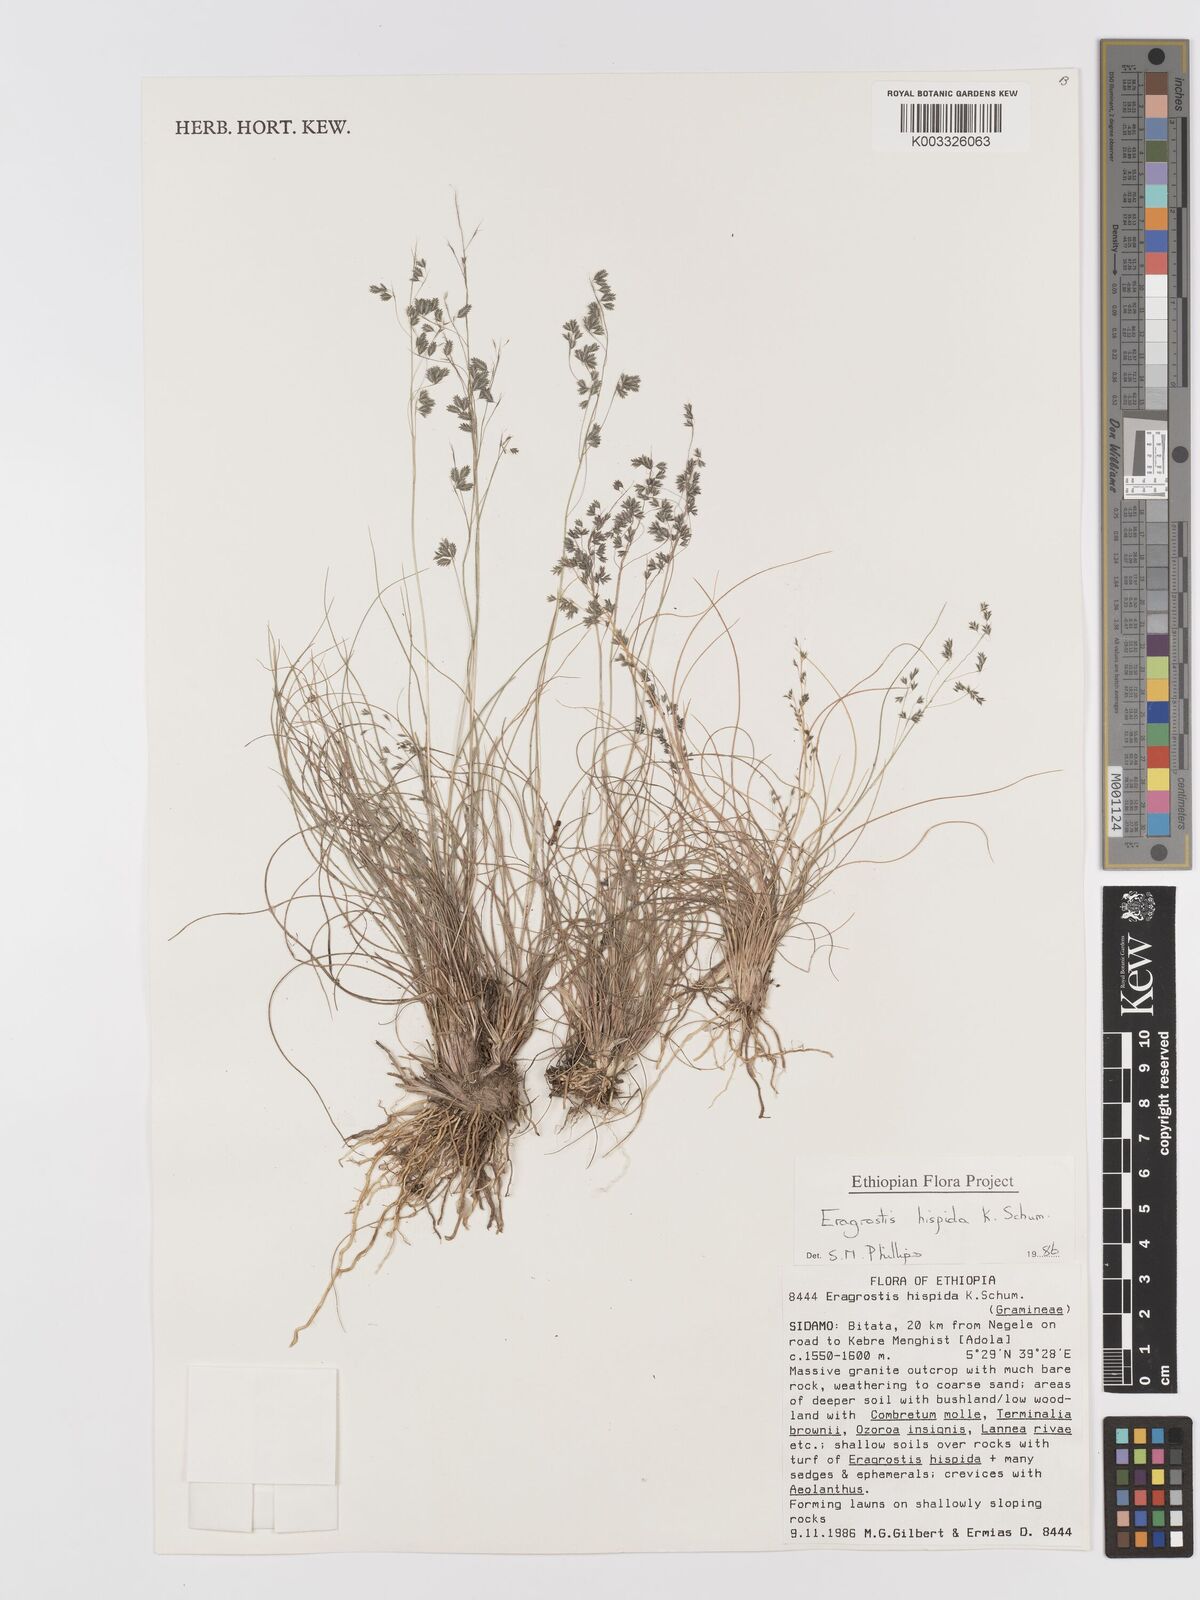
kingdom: Plantae
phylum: Tracheophyta
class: Liliopsida
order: Poales
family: Poaceae
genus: Eragrostis
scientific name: Eragrostis hispida
